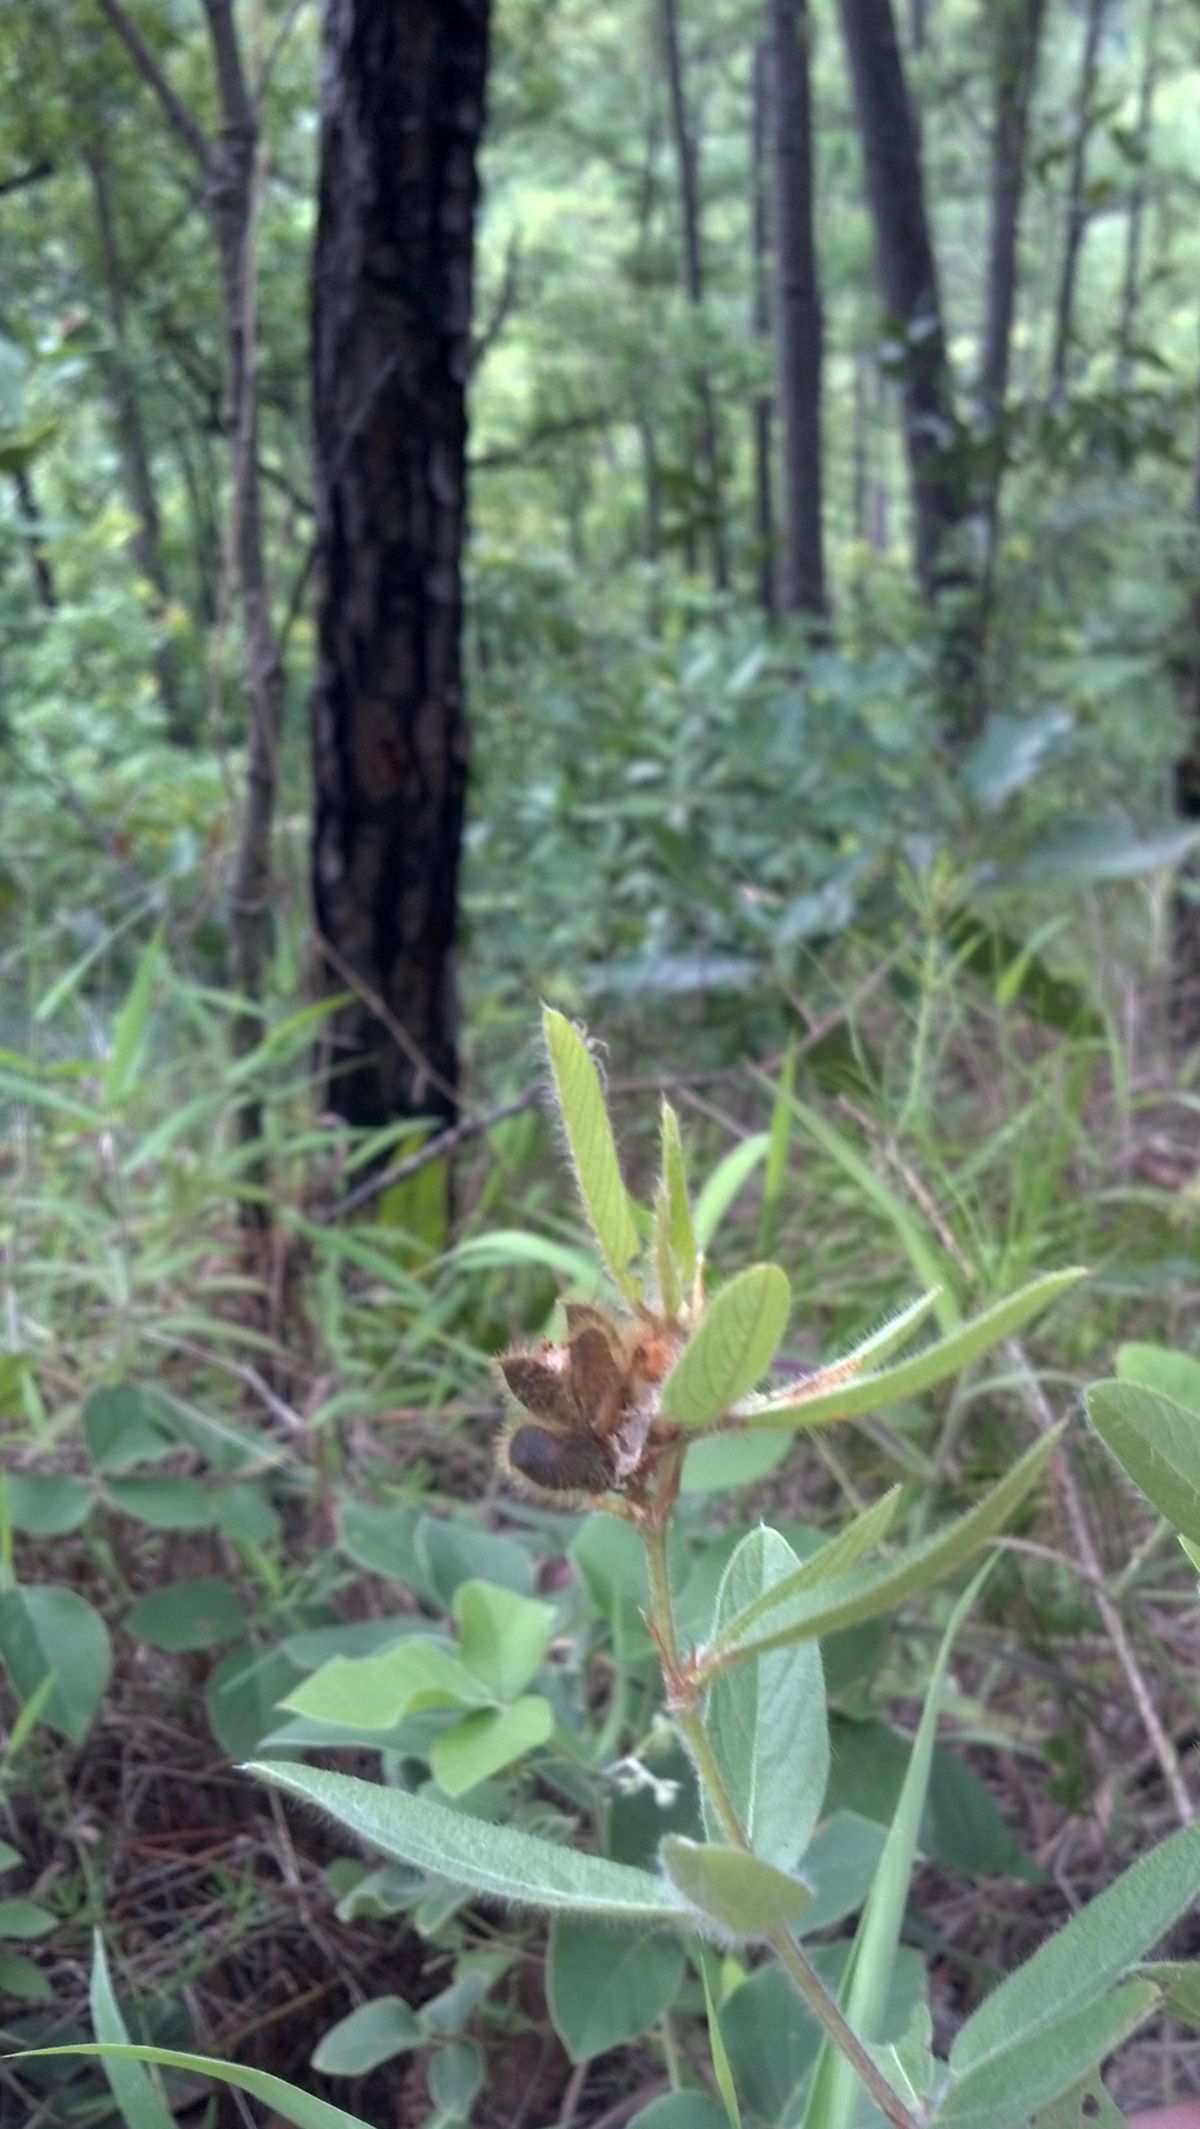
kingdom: Plantae
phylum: Tracheophyta
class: Magnoliopsida
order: Fabales
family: Fabaceae
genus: Eriosema
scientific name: Eriosema diffusum
